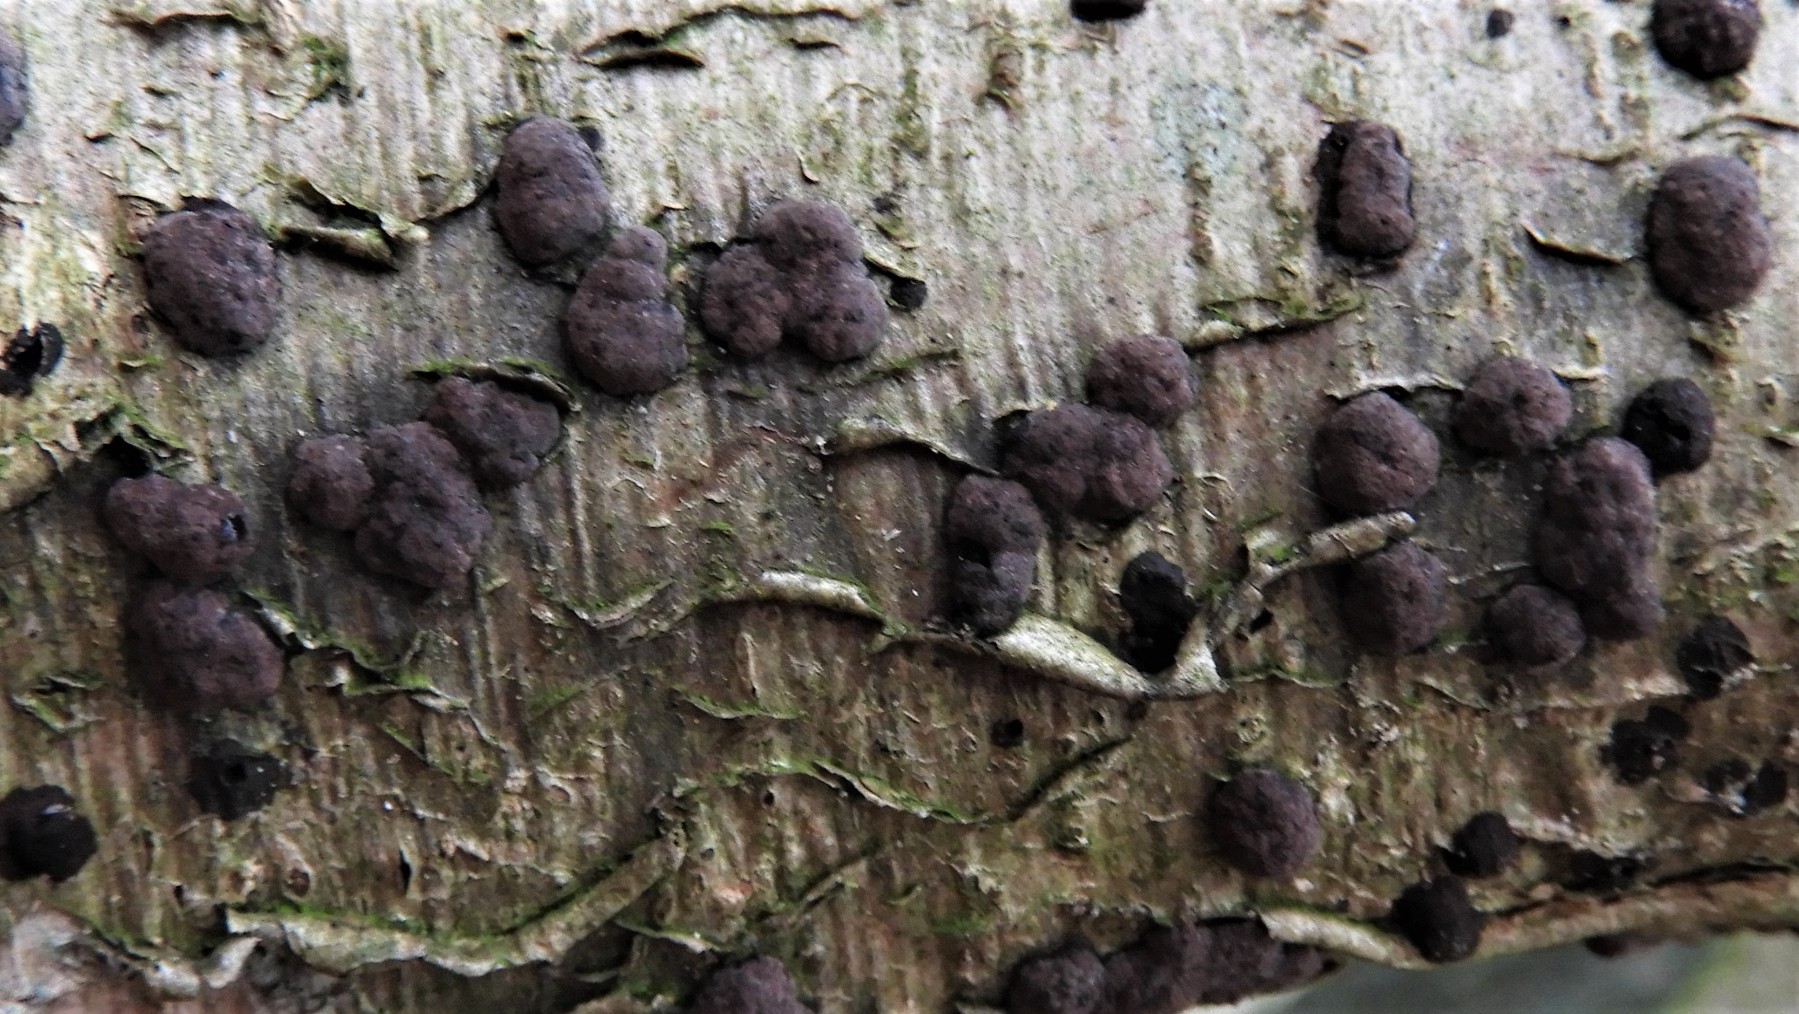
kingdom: Fungi
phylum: Ascomycota
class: Sordariomycetes
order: Xylariales
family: Hypoxylaceae
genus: Hypoxylon
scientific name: Hypoxylon fuscum
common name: kegleformet kulbær
